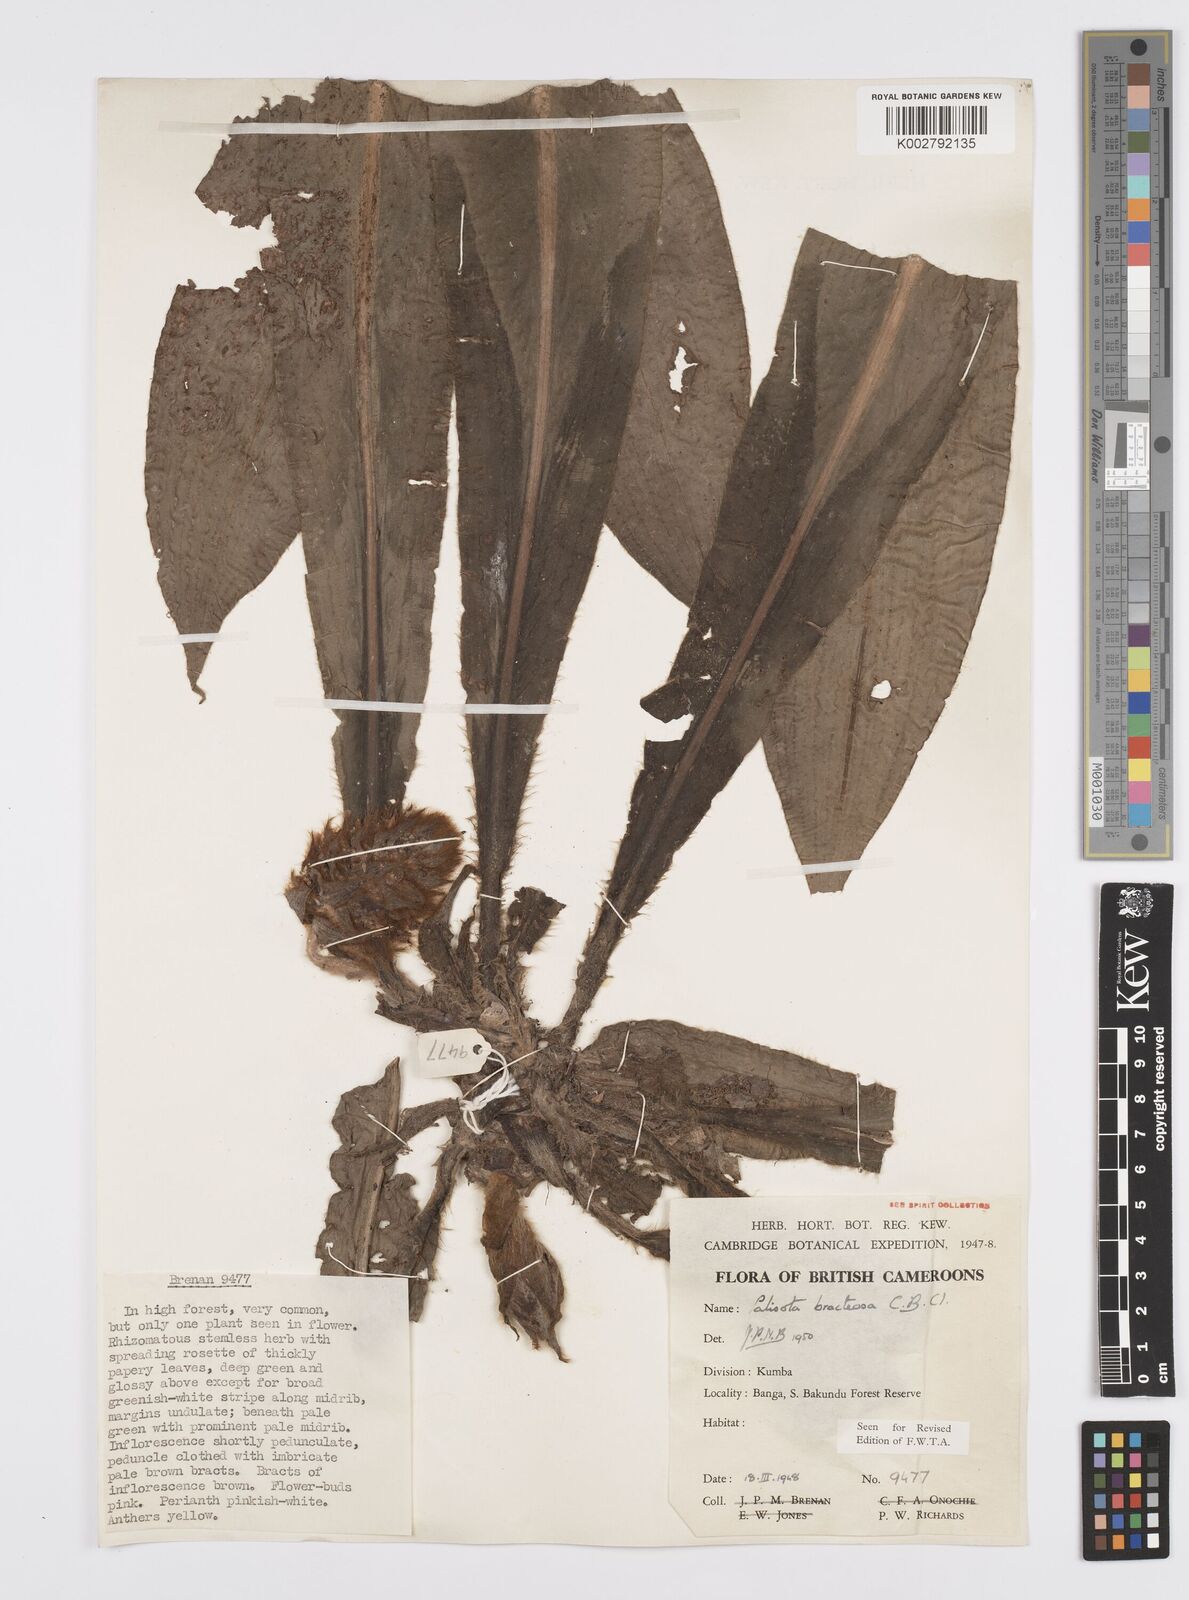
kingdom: Plantae
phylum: Tracheophyta
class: Liliopsida
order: Commelinales
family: Commelinaceae
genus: Palisota
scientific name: Palisota bracteosa
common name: Palisota
